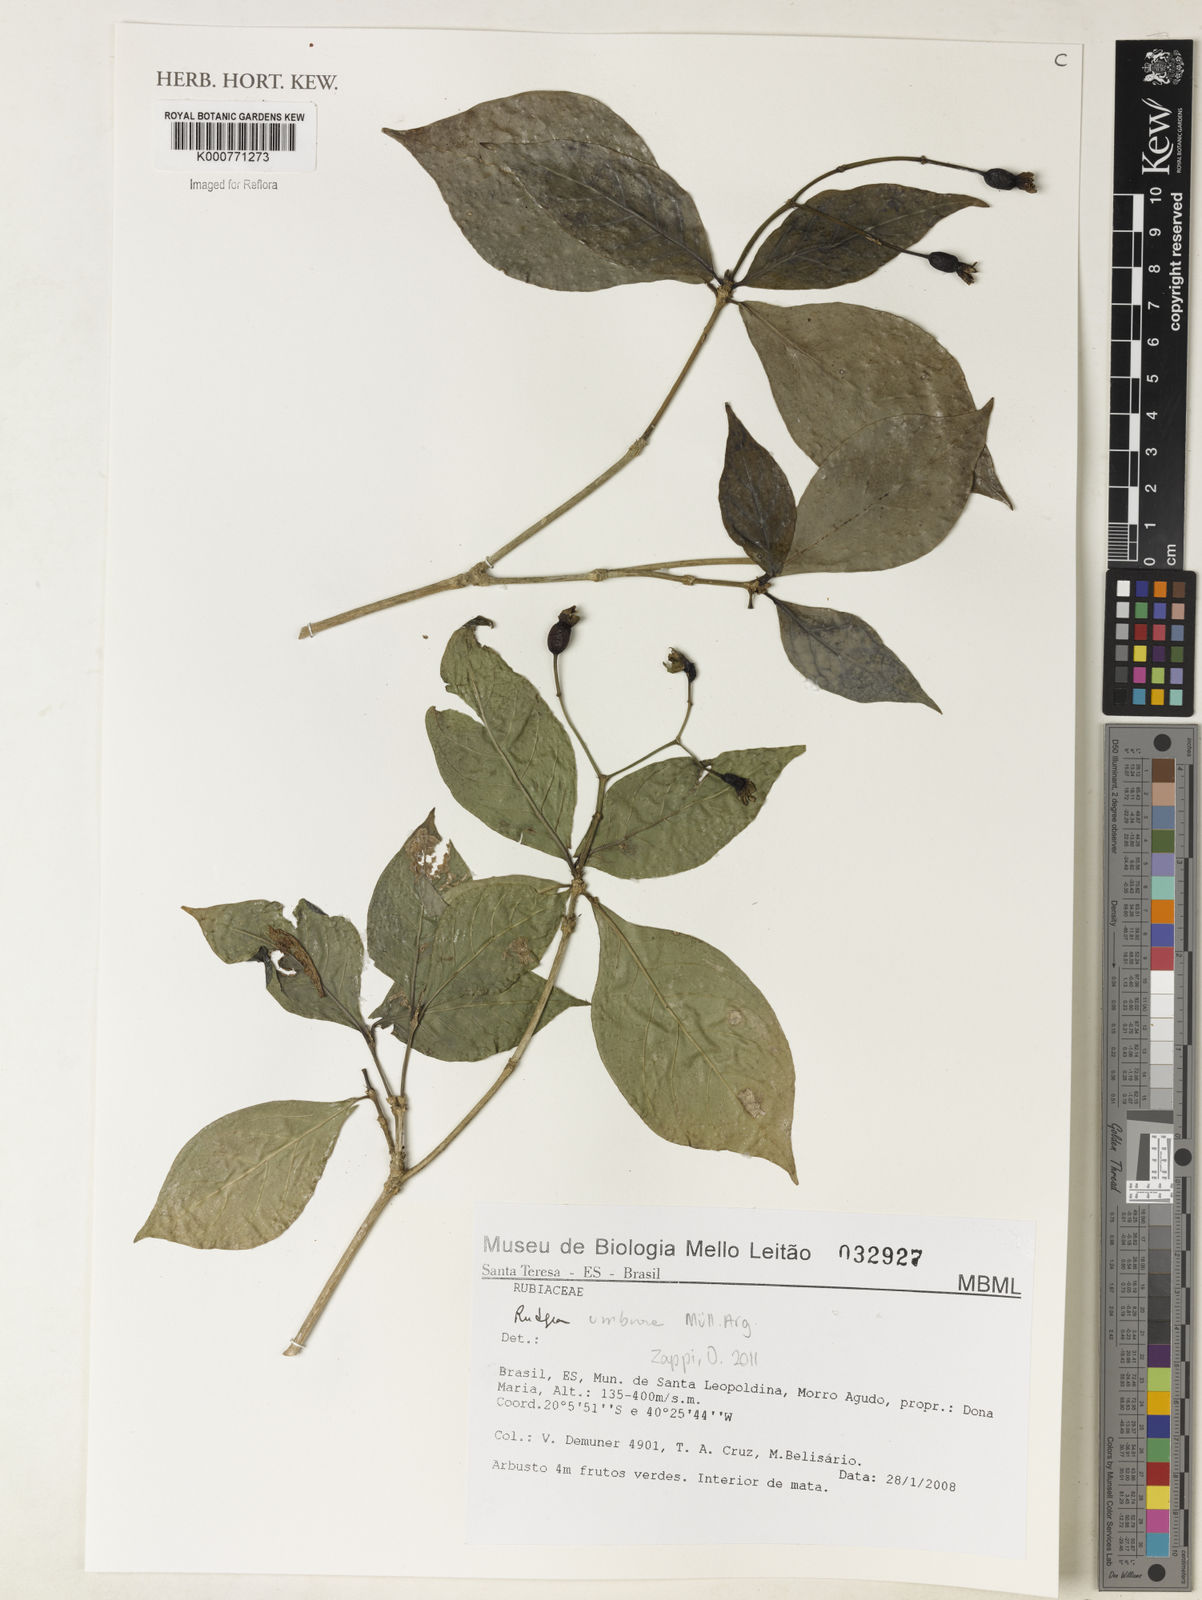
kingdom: Plantae
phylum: Tracheophyta
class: Magnoliopsida
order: Gentianales
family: Rubiaceae
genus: Rudgea
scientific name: Rudgea
